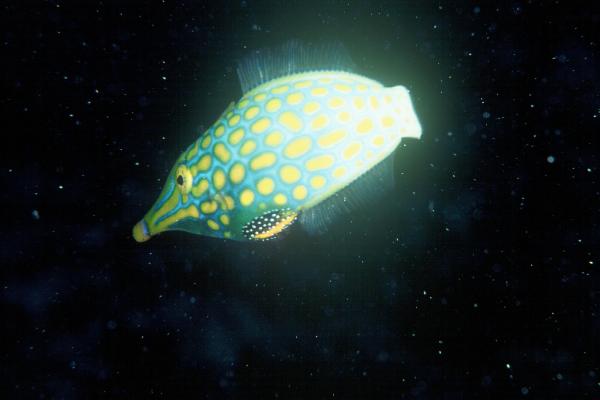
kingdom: Animalia
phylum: Chordata
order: Tetraodontiformes
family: Monacanthidae
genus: Oxymonacanthus
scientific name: Oxymonacanthus longirostris
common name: Beaked leatherjacket
